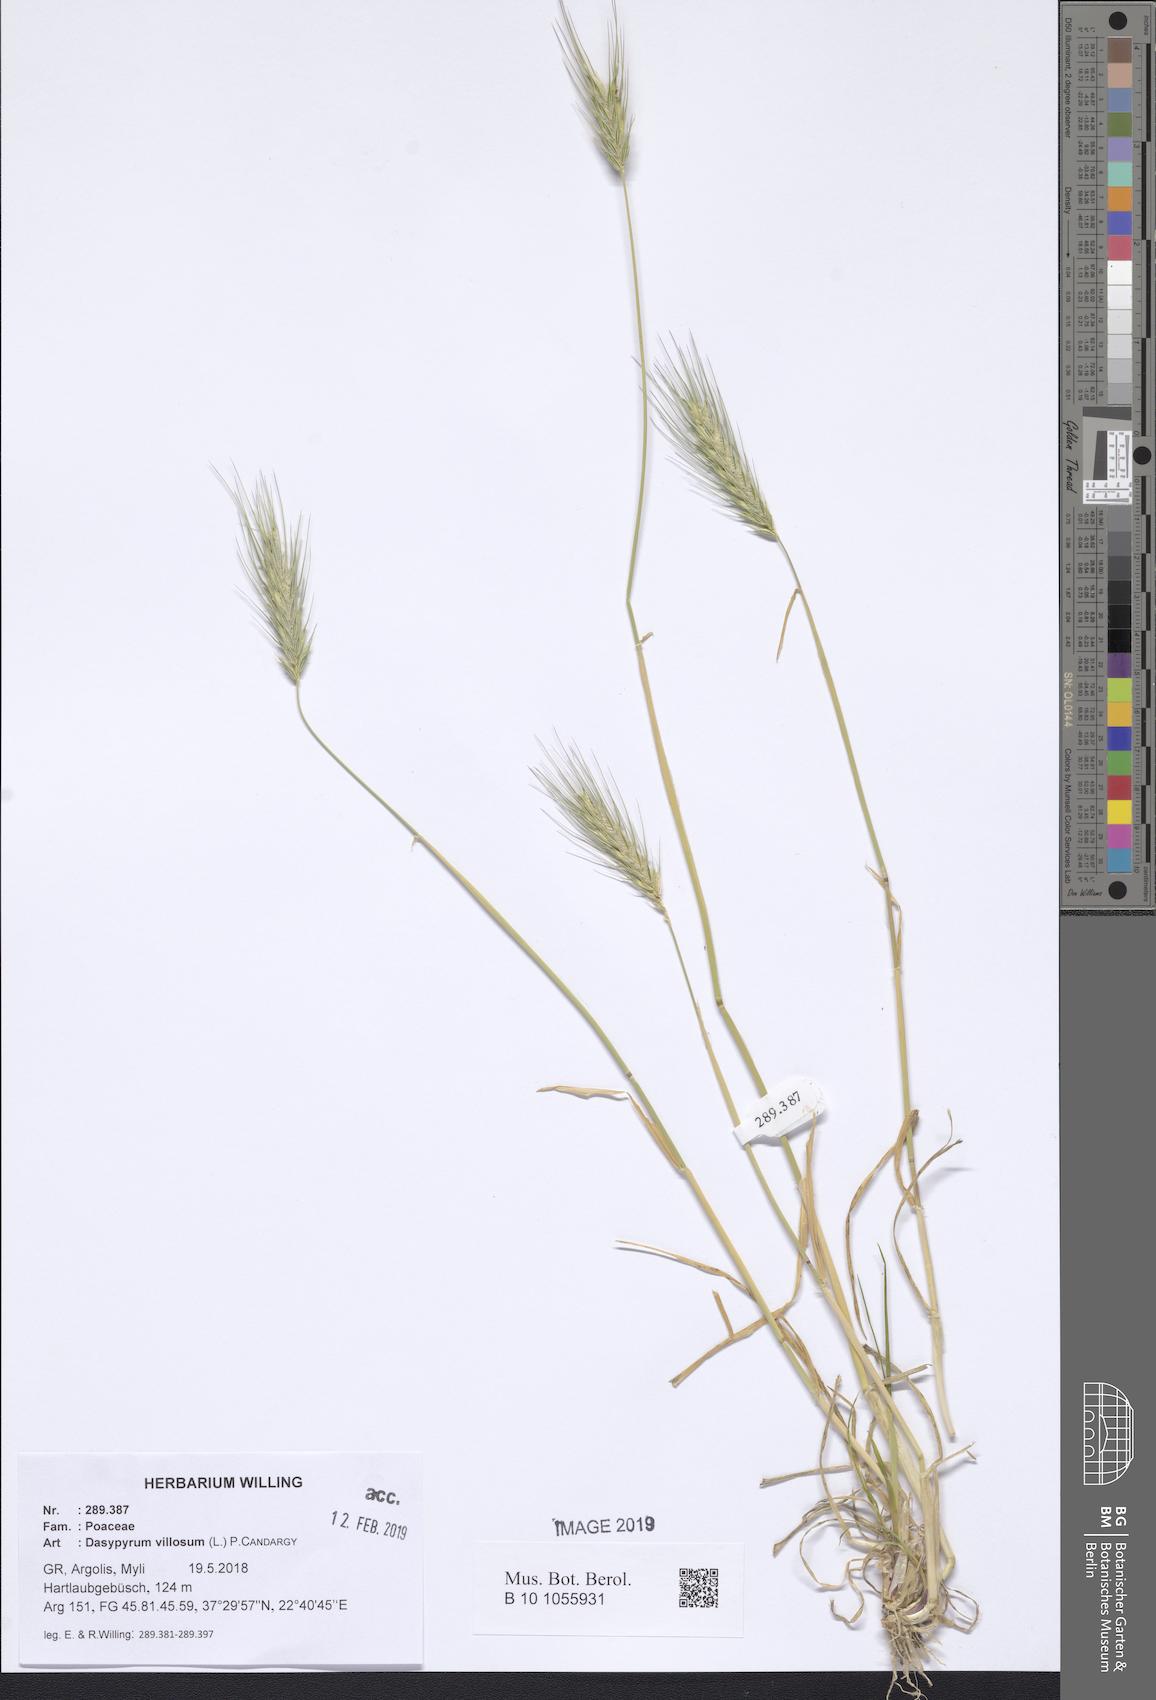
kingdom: Plantae
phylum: Tracheophyta
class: Liliopsida
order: Poales
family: Poaceae
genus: Dasypyrum
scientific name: Dasypyrum villosum
